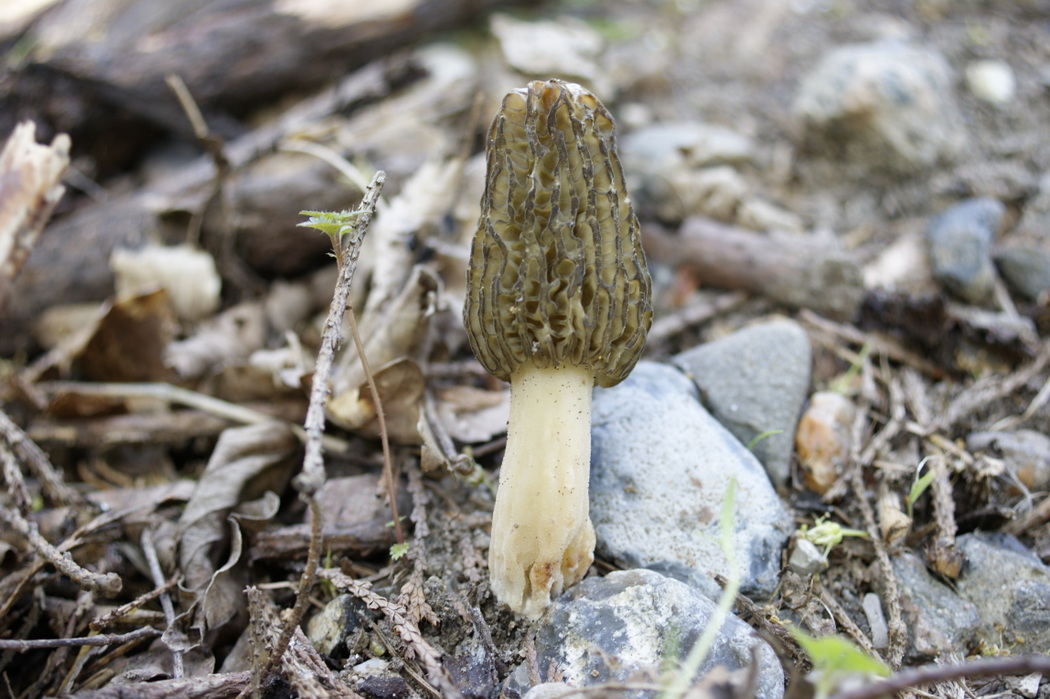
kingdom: Fungi
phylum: Ascomycota
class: Pezizomycetes
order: Pezizales
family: Morchellaceae
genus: Morchella
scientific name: Morchella importuna
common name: Landscaping black morel
